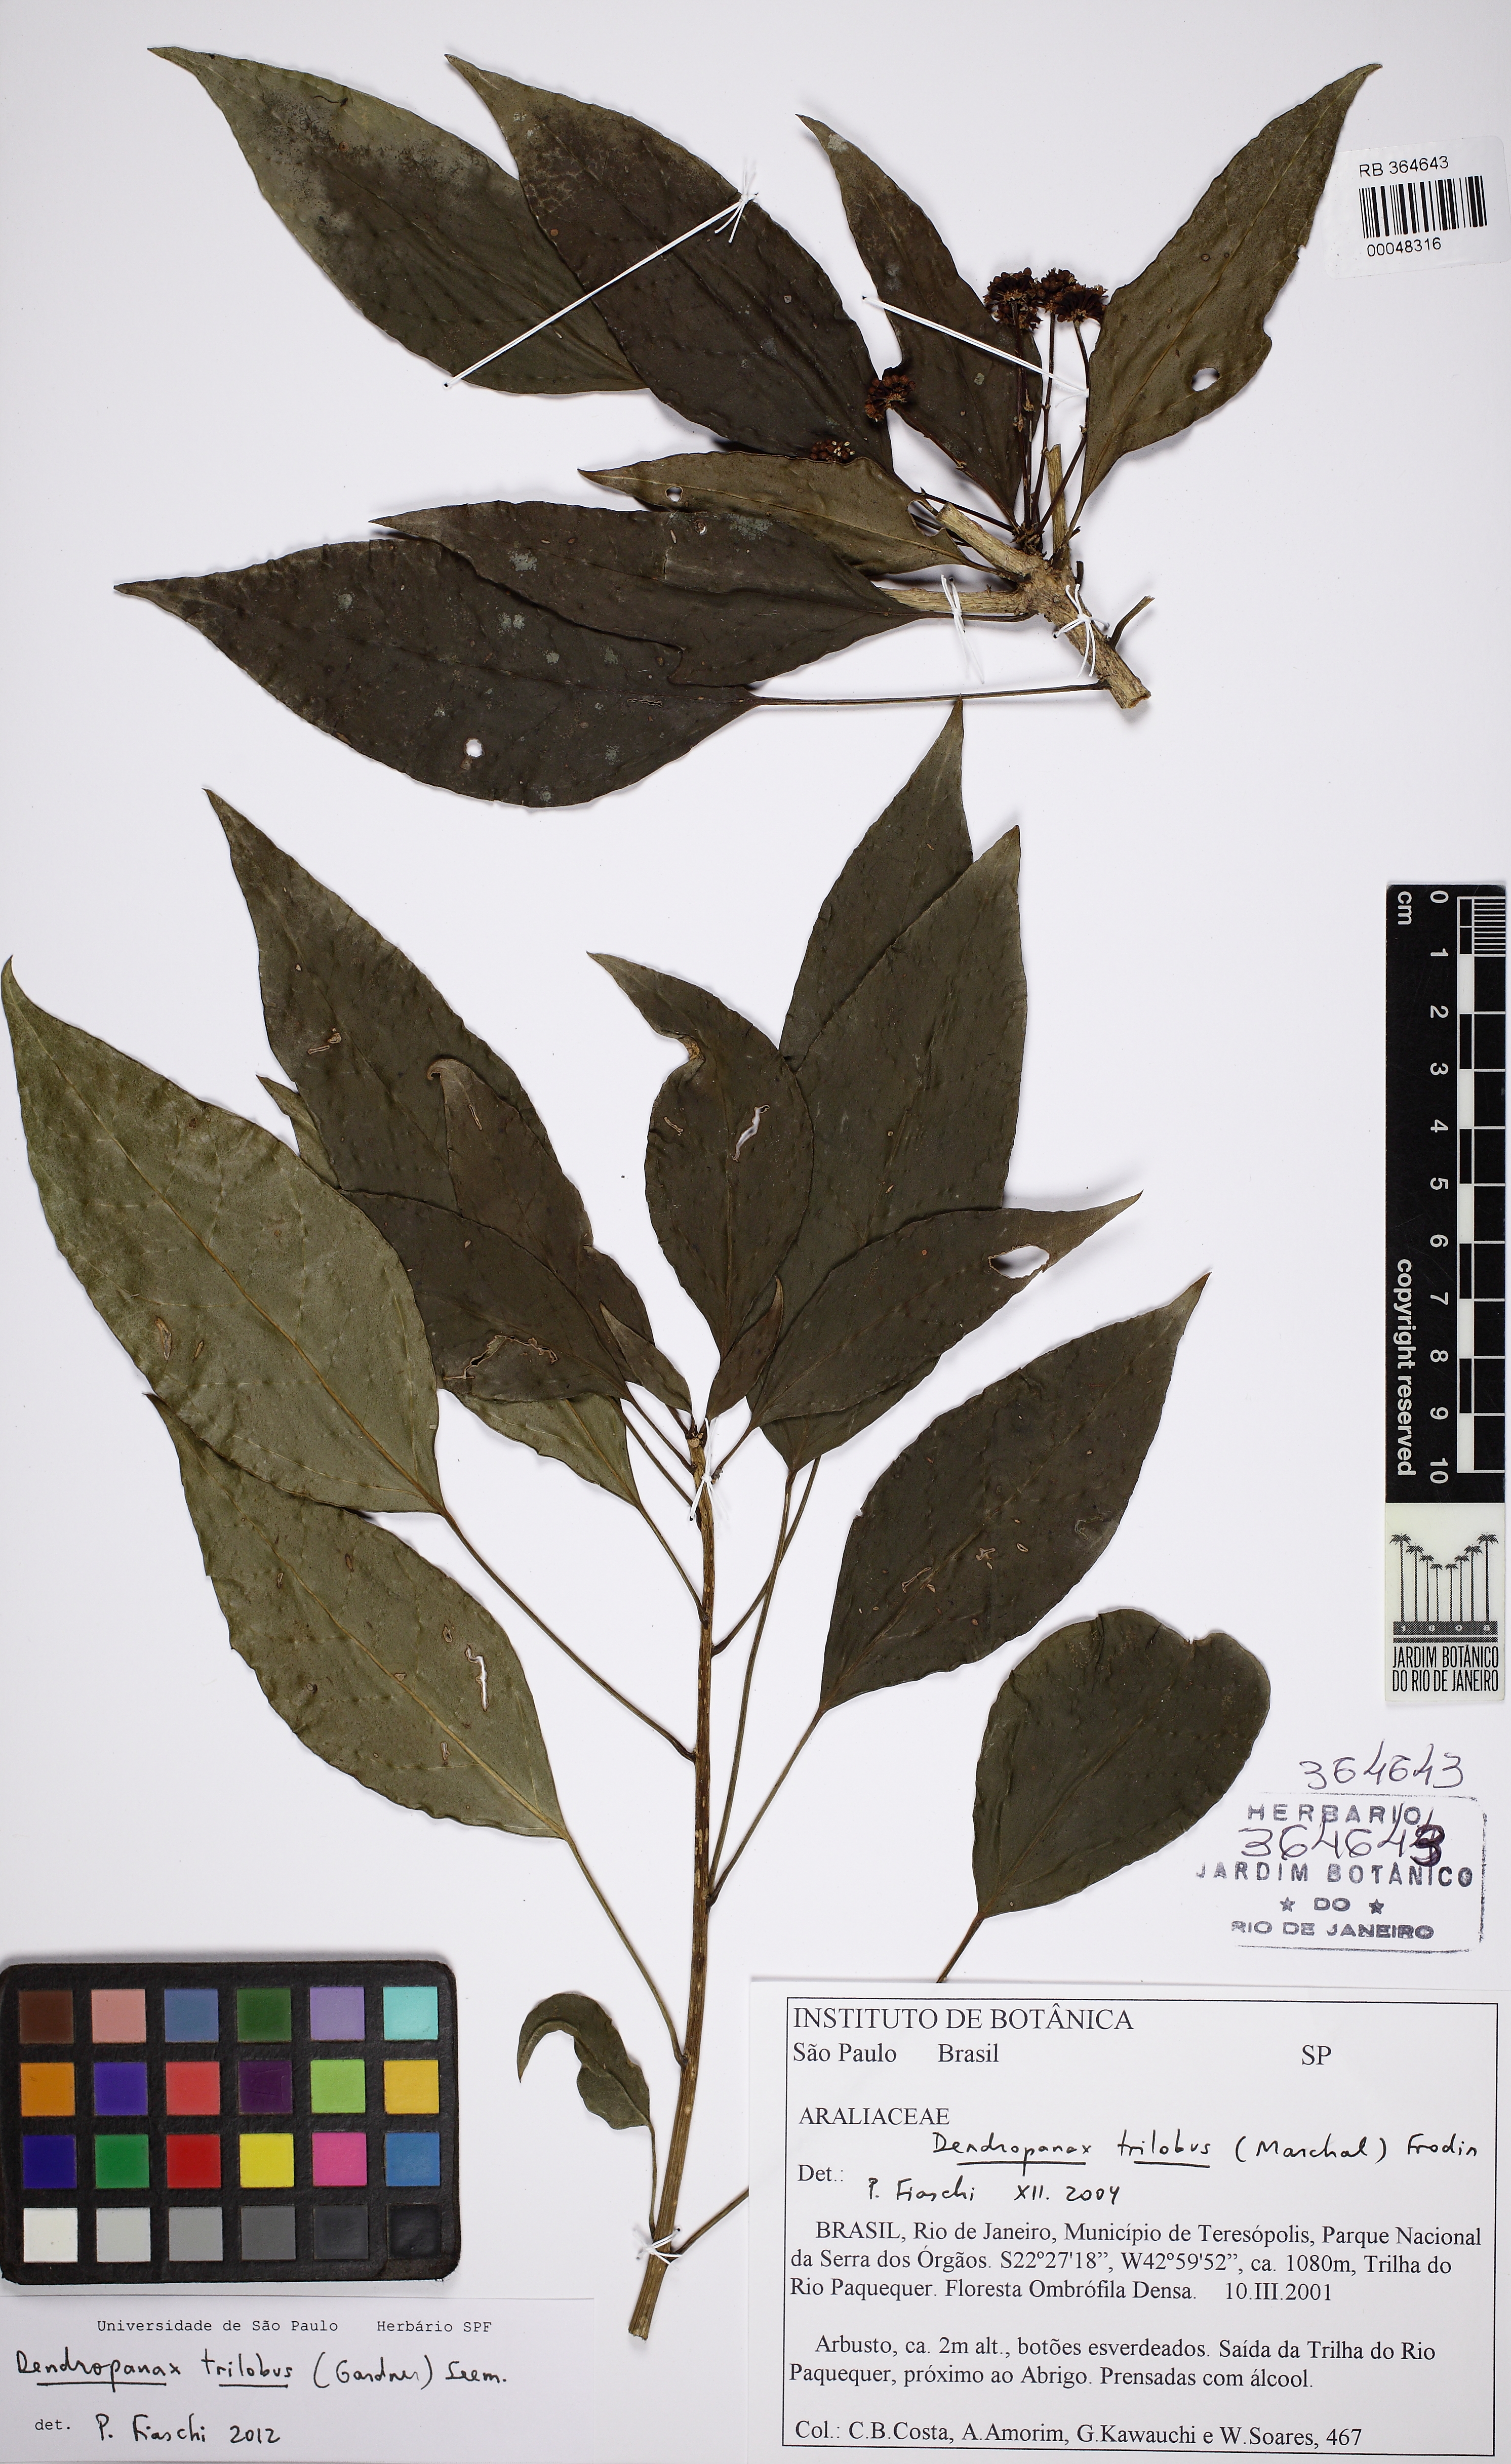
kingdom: Plantae
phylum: Tracheophyta
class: Magnoliopsida
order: Apiales
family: Araliaceae
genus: Dendropanax
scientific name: Dendropanax trilobus
